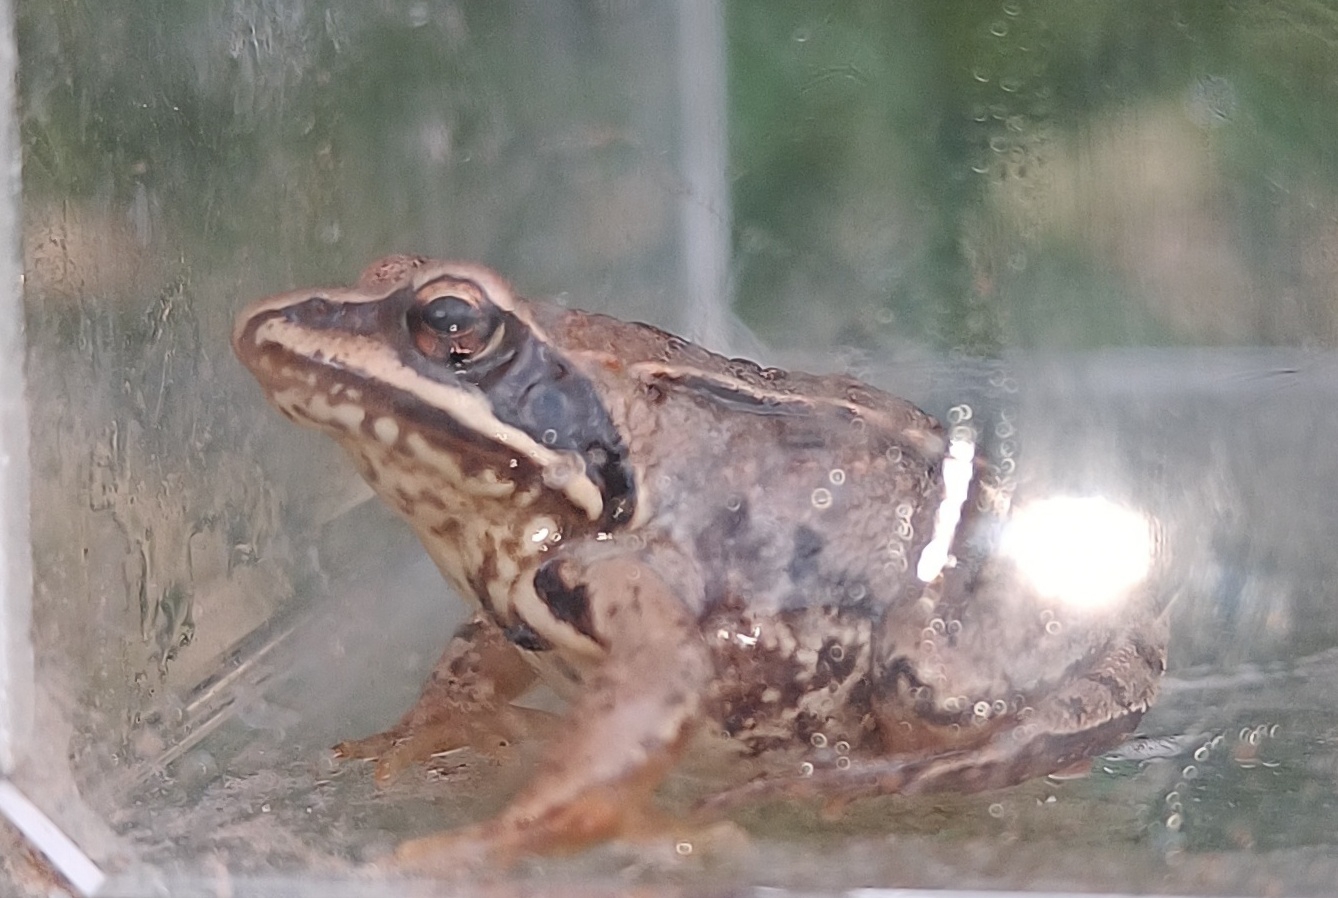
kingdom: Animalia
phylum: Chordata
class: Amphibia
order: Anura
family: Ranidae
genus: Rana
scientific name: Rana arvalis
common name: Spidssnudet frø
